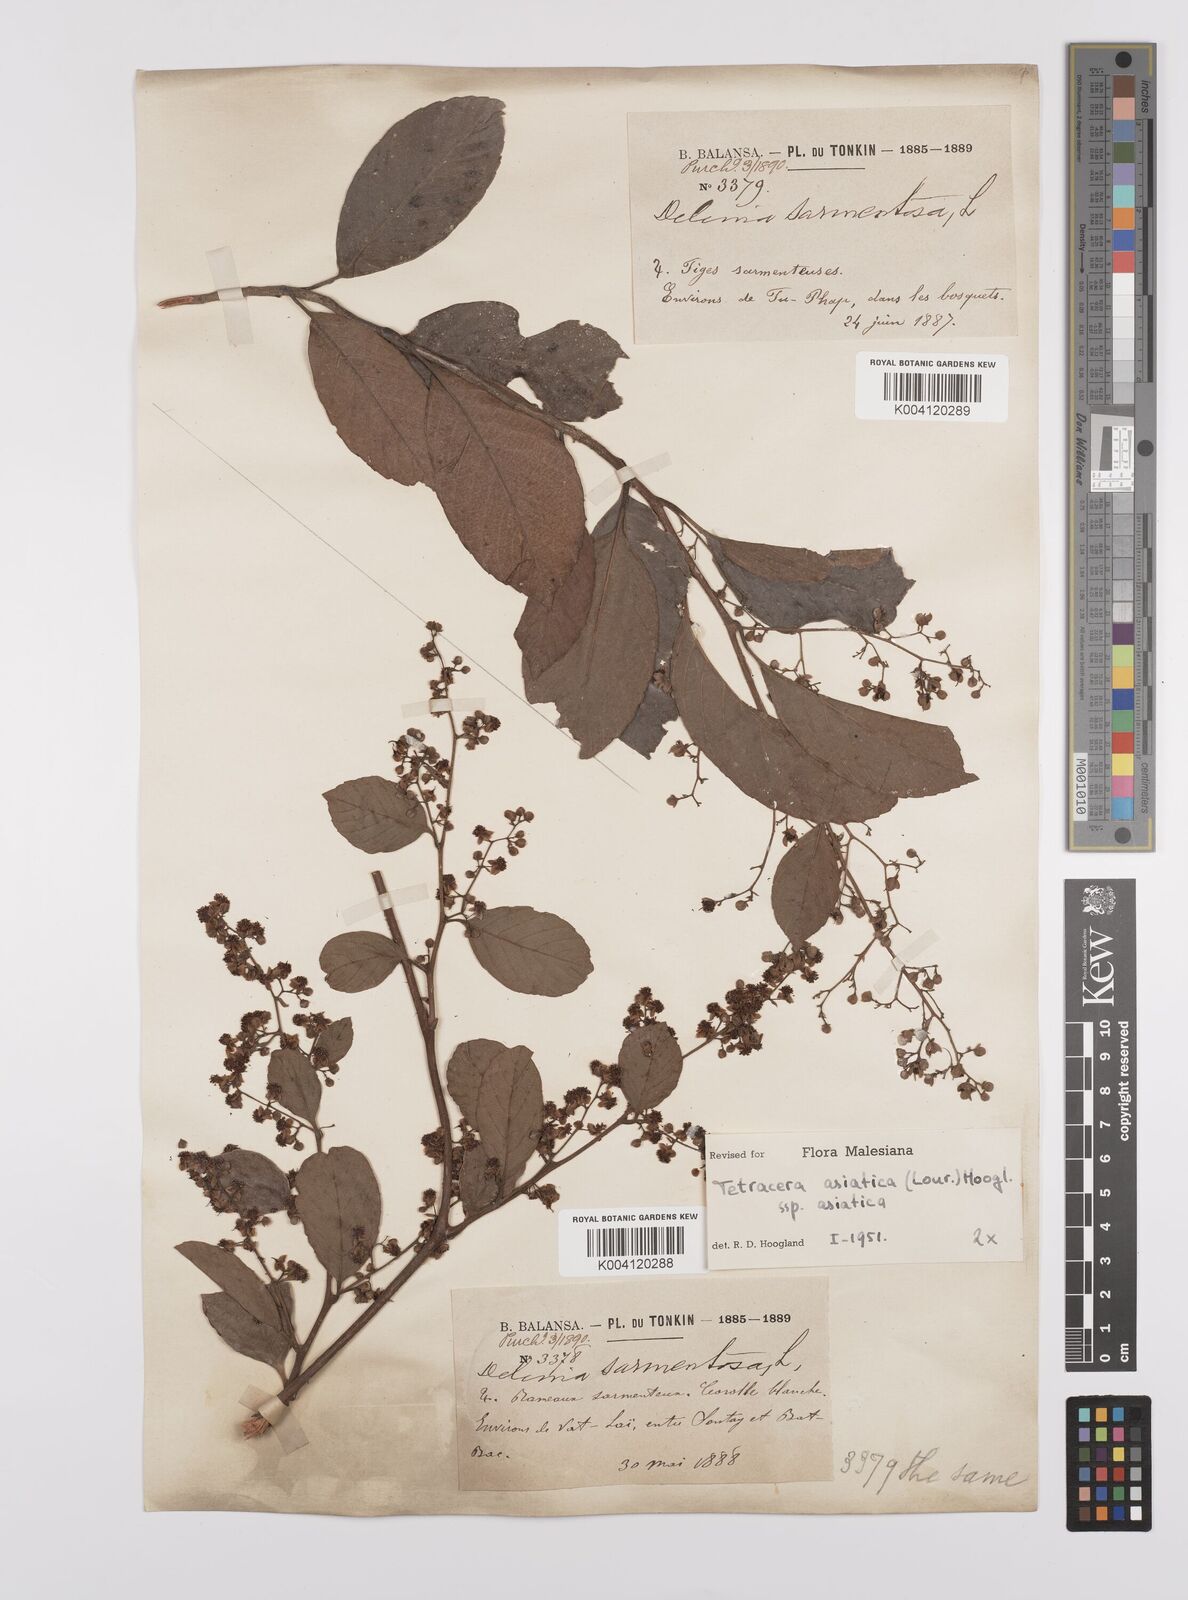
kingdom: Plantae
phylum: Tracheophyta
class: Magnoliopsida
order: Dilleniales
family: Dilleniaceae
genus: Tetracera
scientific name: Tetracera sarmentosa
